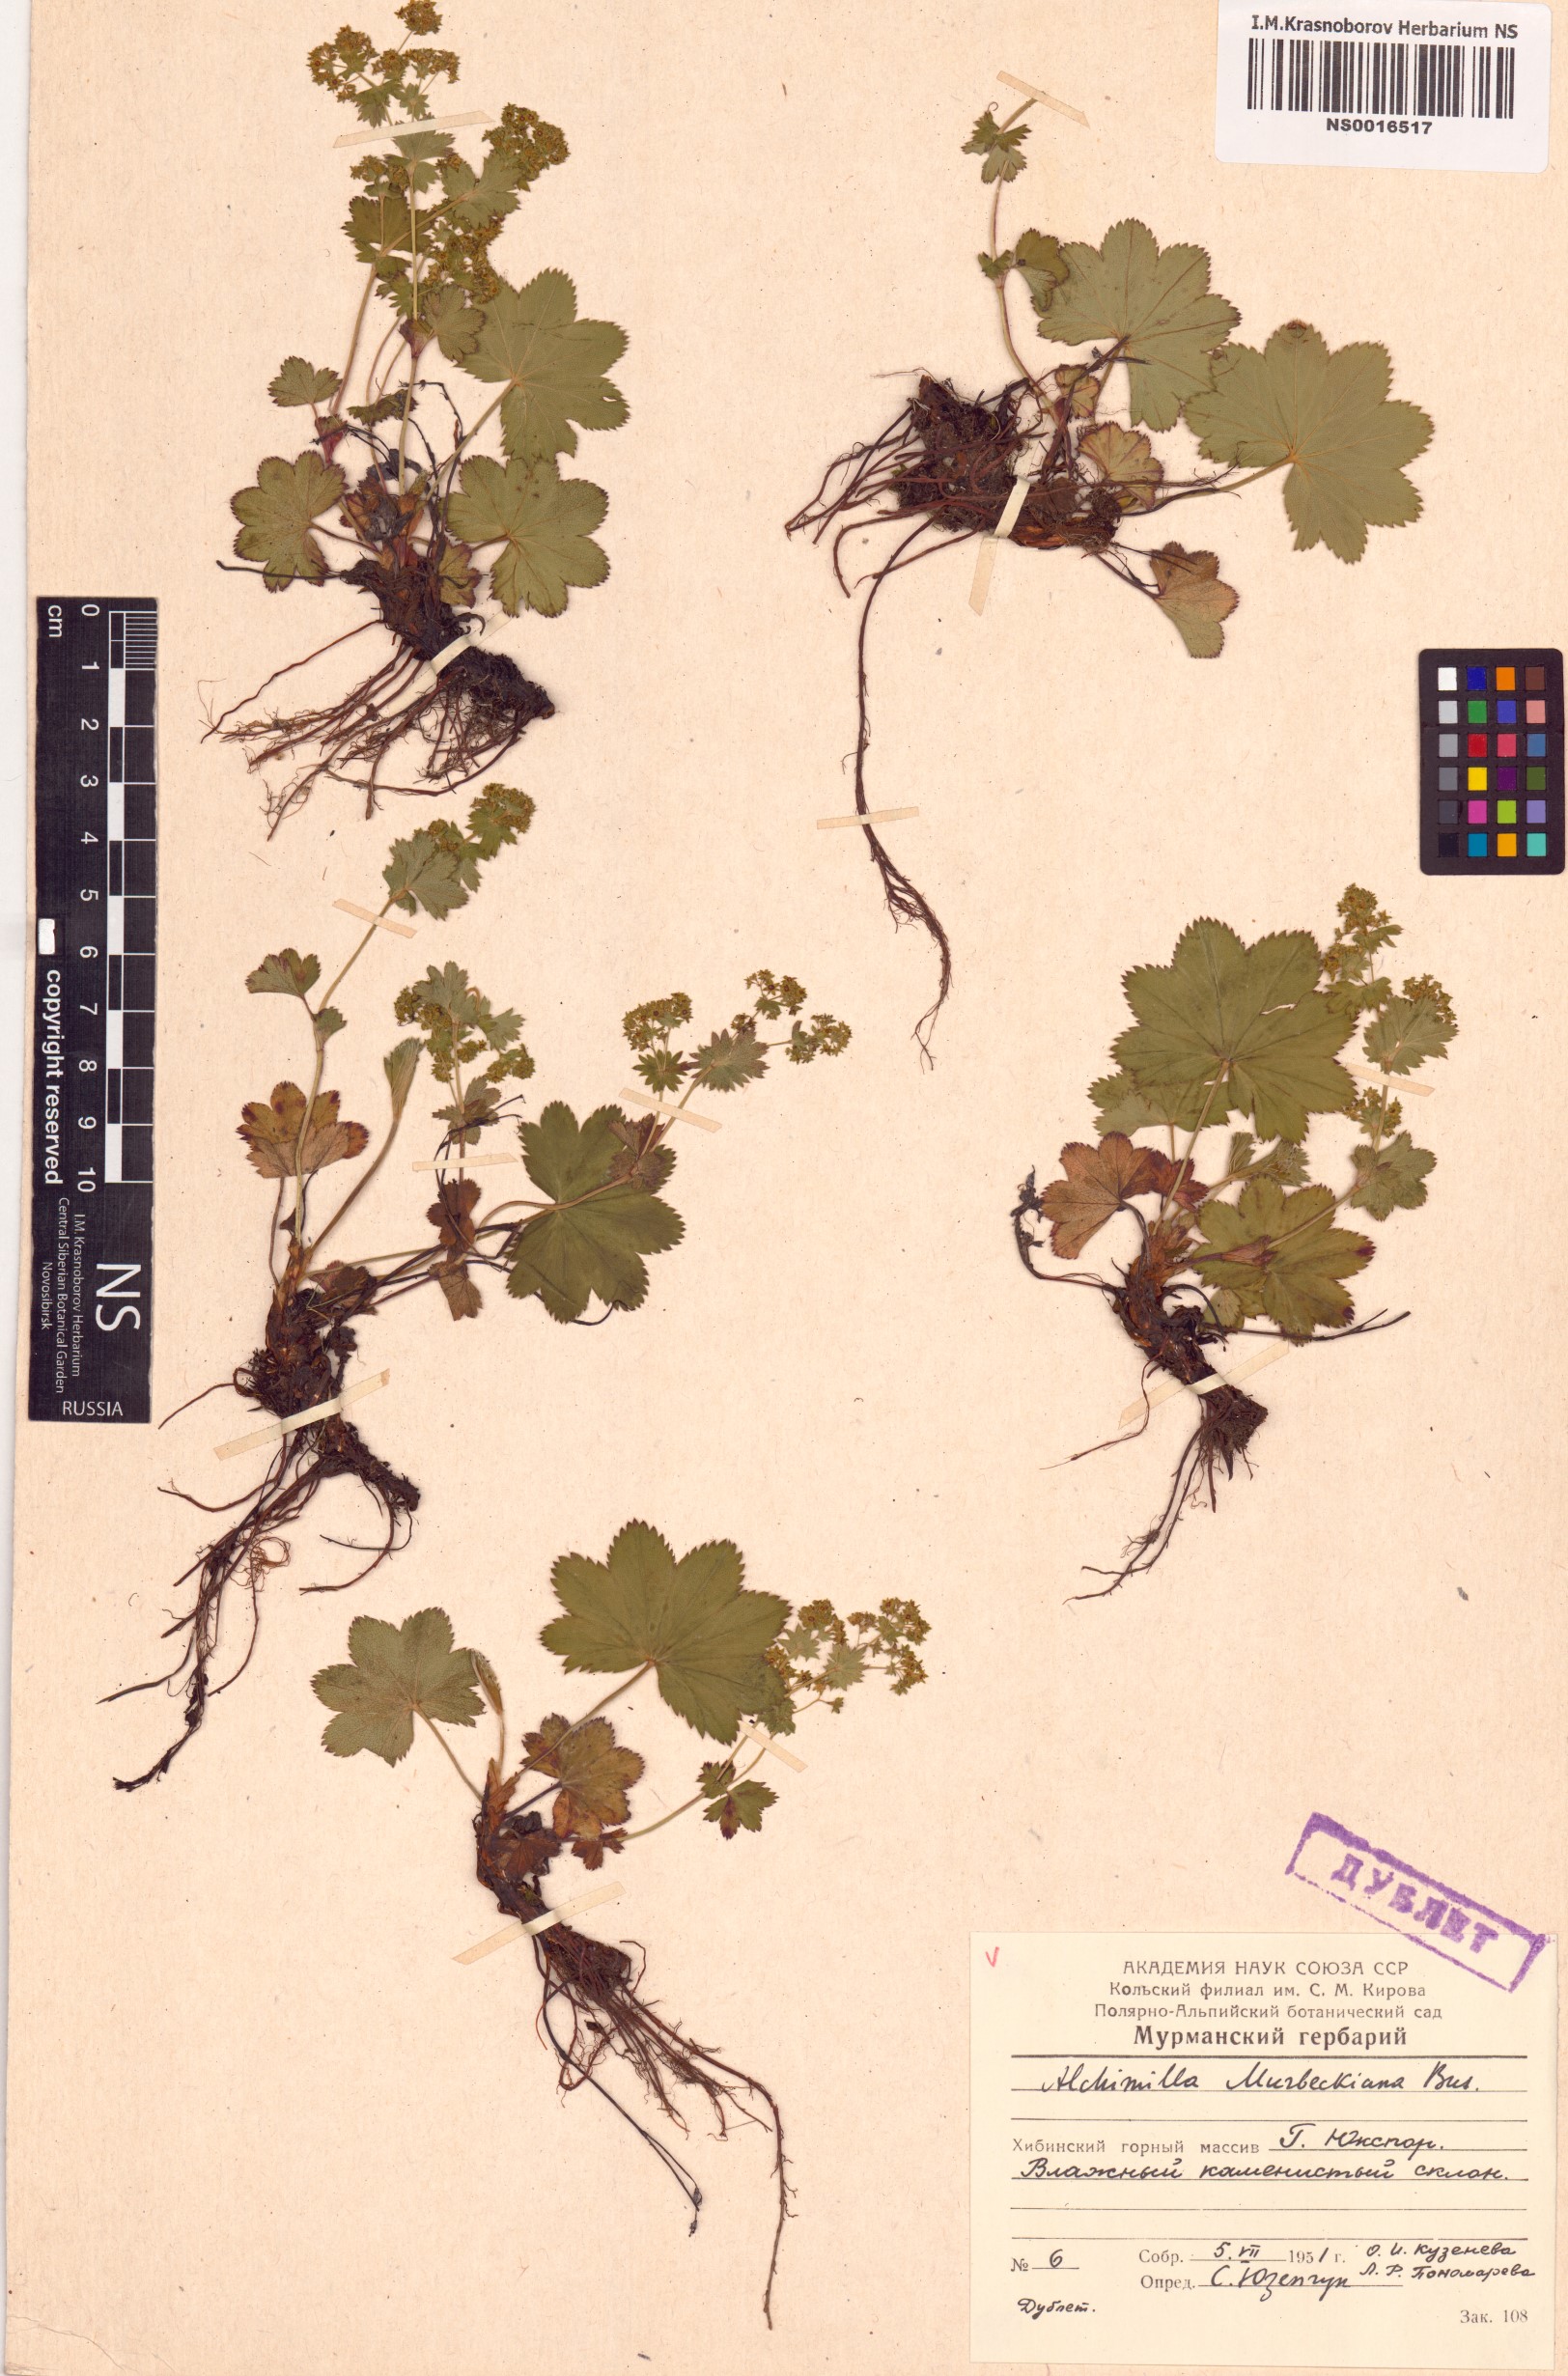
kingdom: Plantae
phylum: Tracheophyta
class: Magnoliopsida
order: Rosales
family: Rosaceae
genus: Alchemilla
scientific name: Alchemilla murbeckiana
